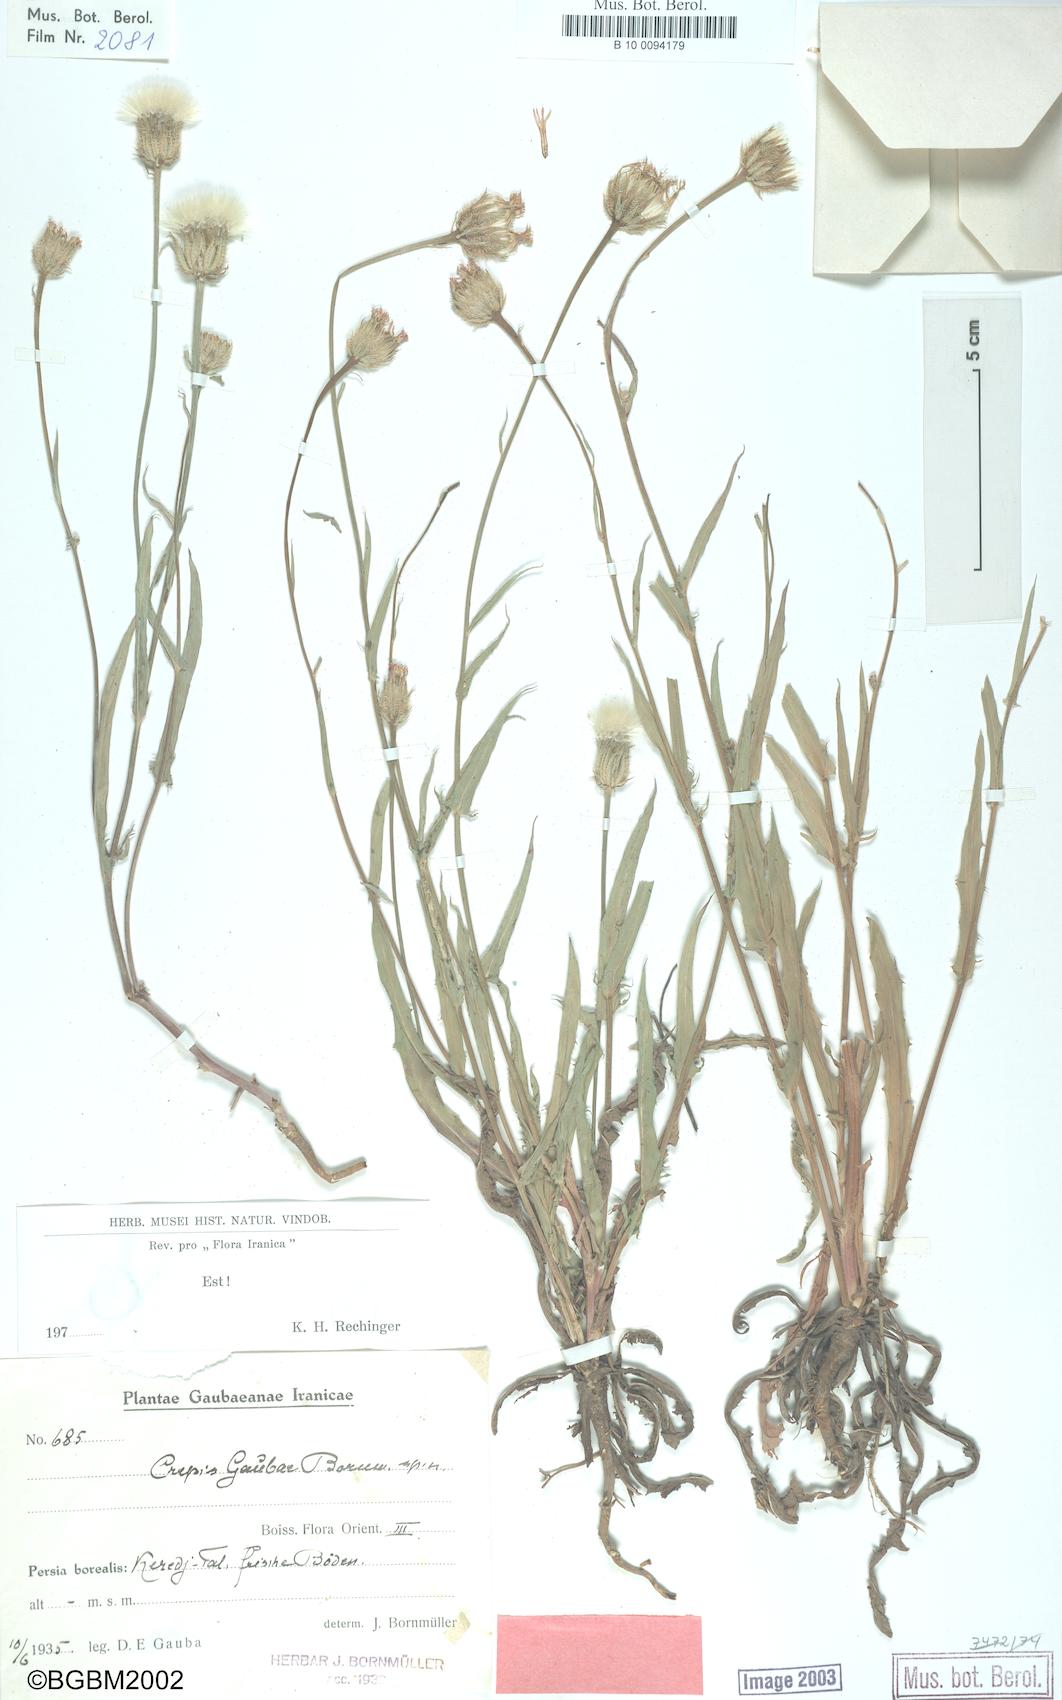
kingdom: Plantae
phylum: Tracheophyta
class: Magnoliopsida
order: Asterales
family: Asteraceae
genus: Crepis
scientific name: Crepis gaubae
